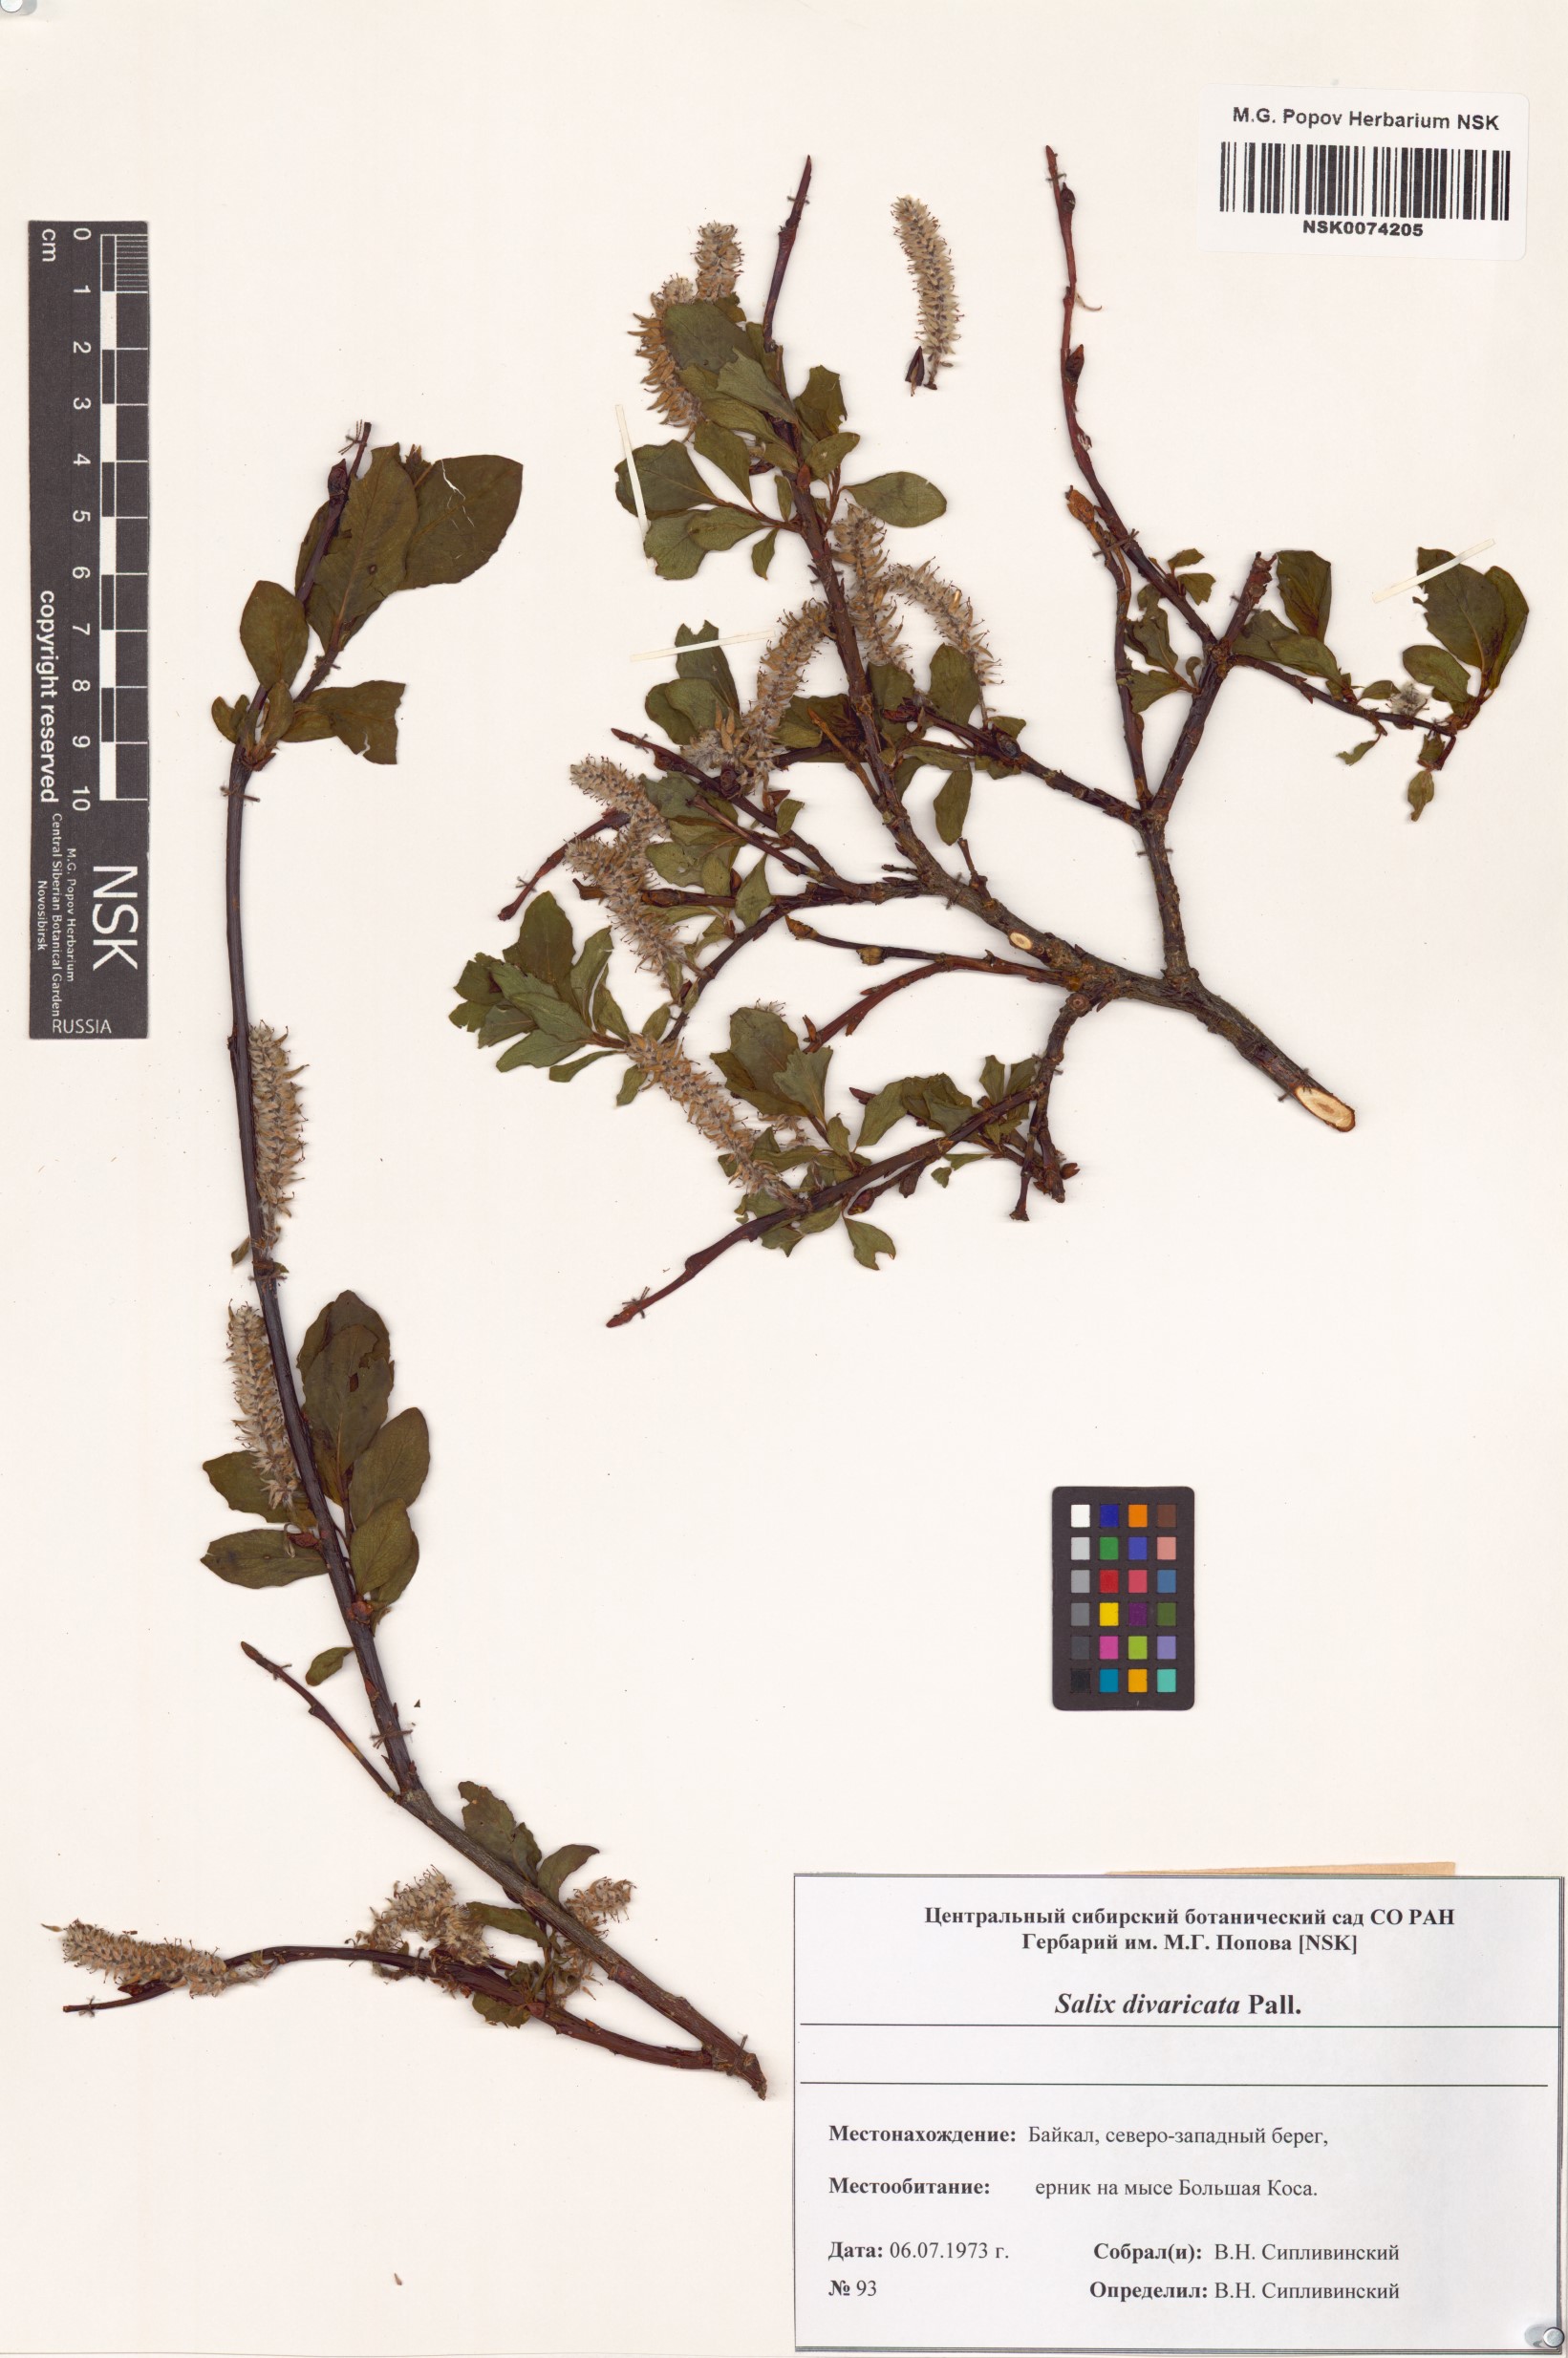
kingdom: Plantae
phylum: Tracheophyta
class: Magnoliopsida
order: Malpighiales
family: Salicaceae
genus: Salix
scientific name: Salix divaricata
